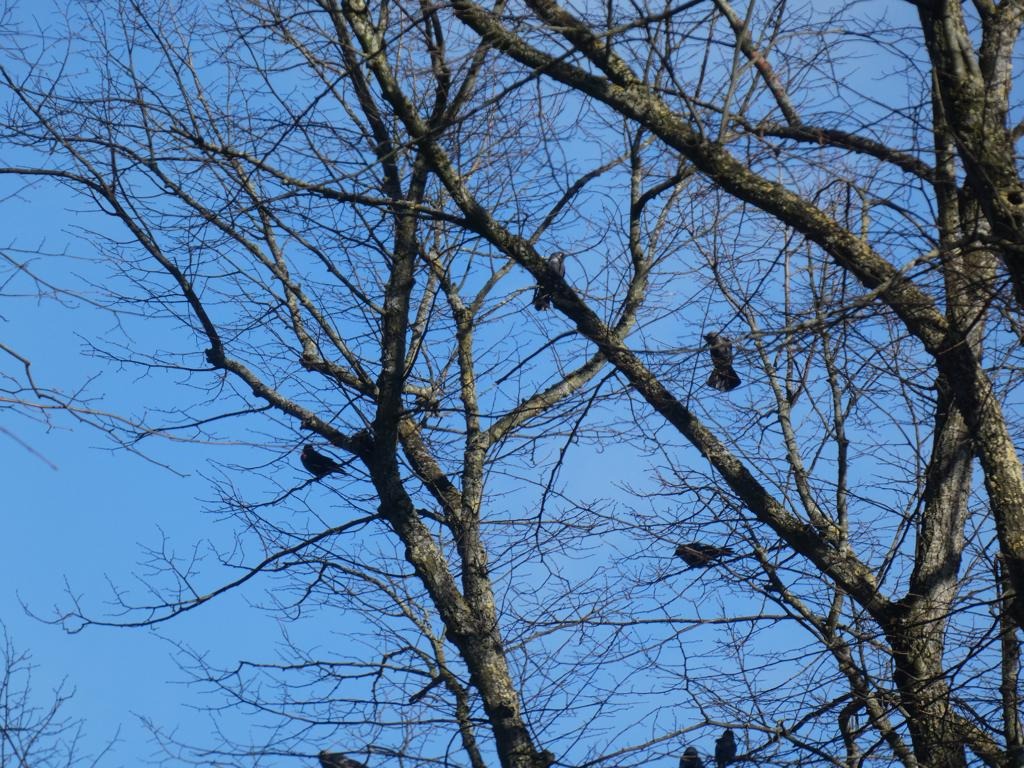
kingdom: Animalia
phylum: Chordata
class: Aves
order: Passeriformes
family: Corvidae
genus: Coloeus
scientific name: Coloeus monedula
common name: Allike
